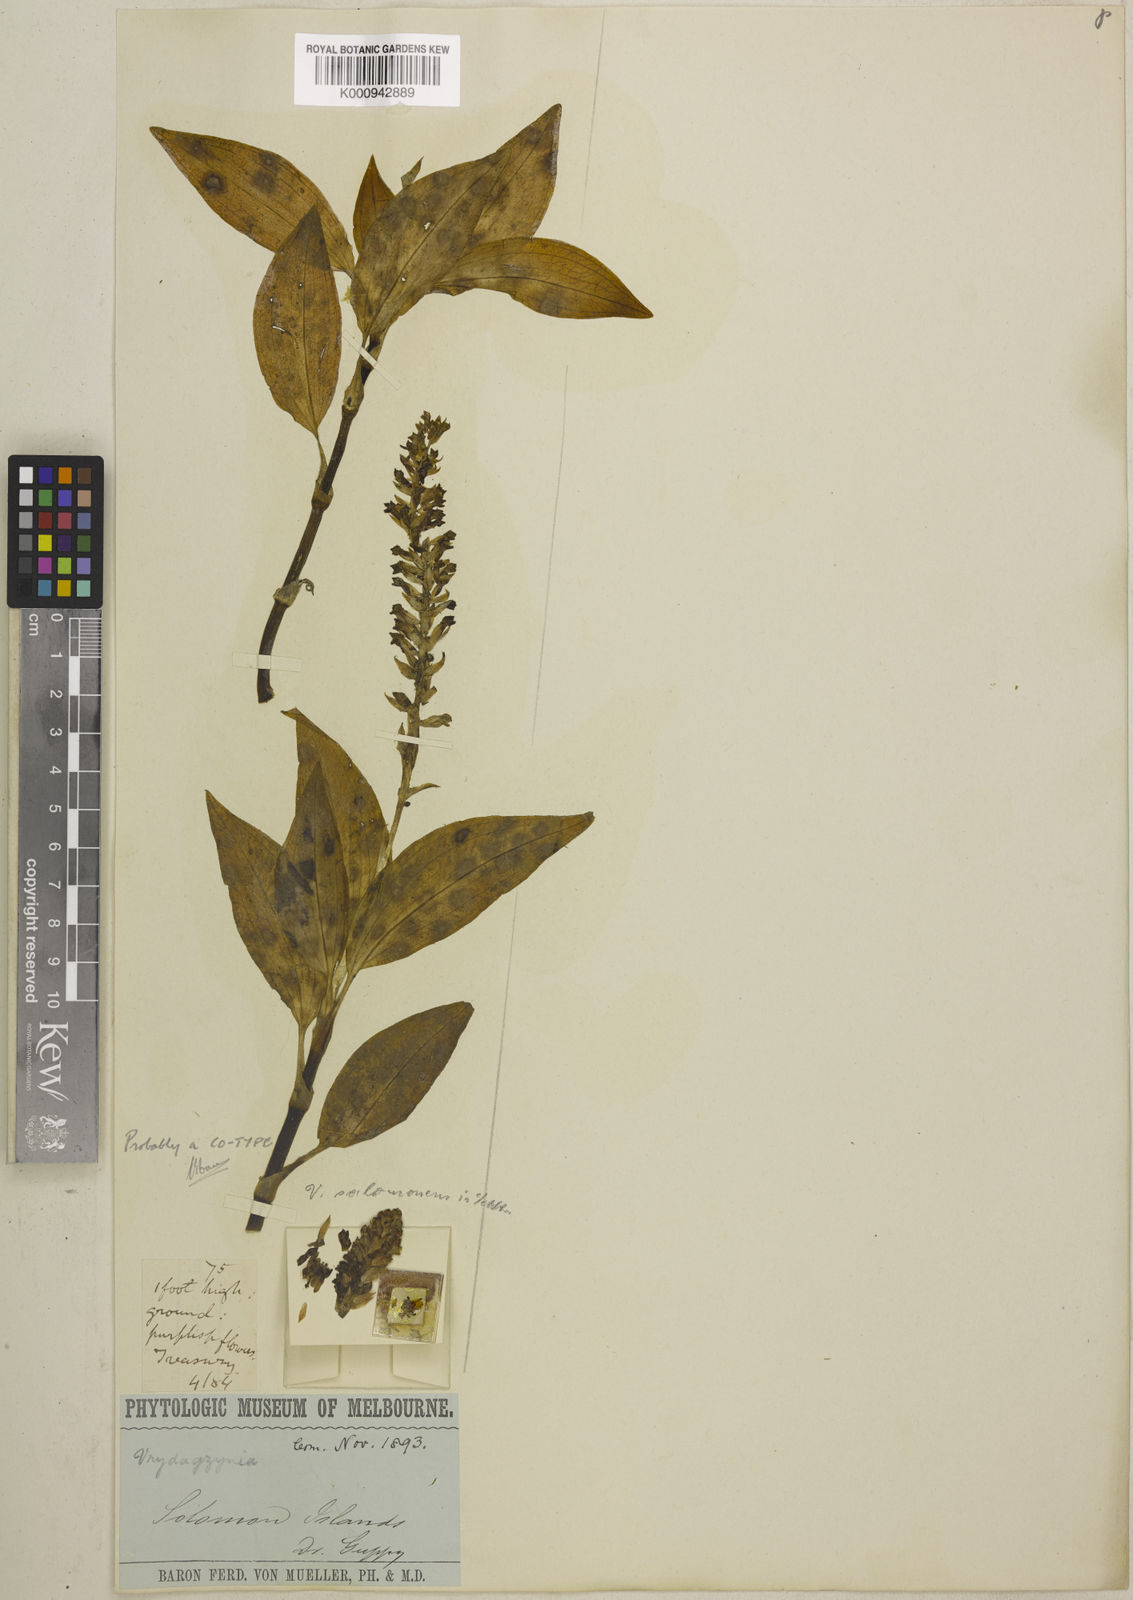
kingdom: Plantae
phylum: Tracheophyta
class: Liliopsida
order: Asparagales
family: Orchidaceae
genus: Vrydagzynea
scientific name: Vrydagzynea salomonensis
